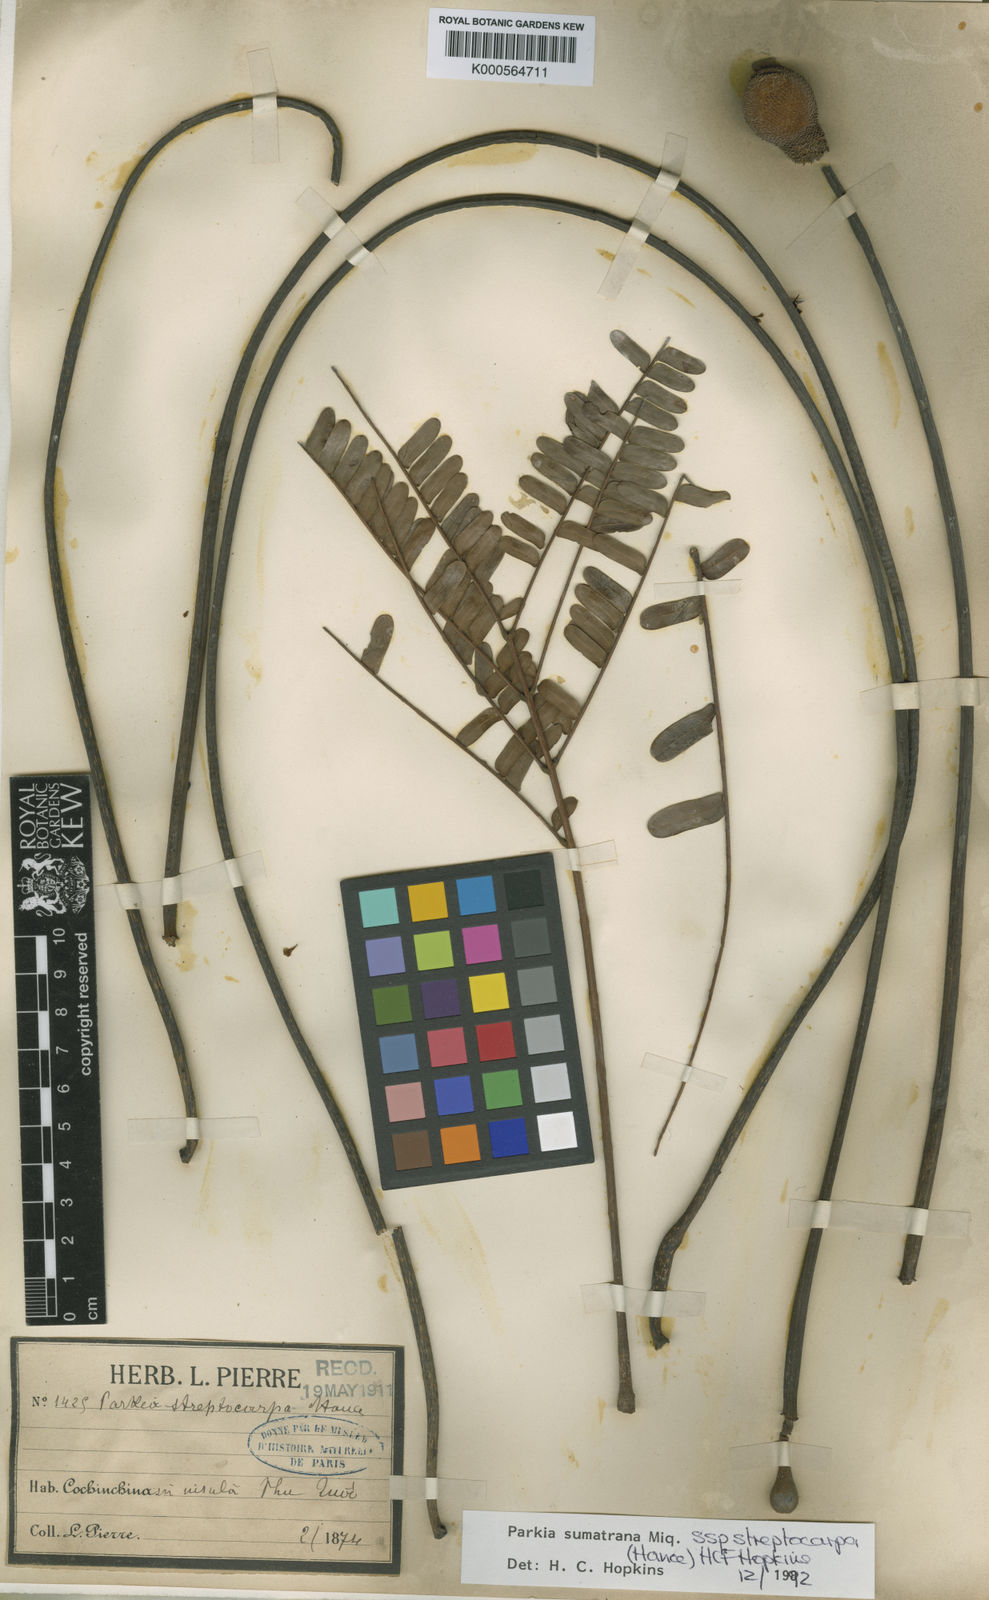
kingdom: Plantae
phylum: Tracheophyta
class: Magnoliopsida
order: Fabales
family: Fabaceae
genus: Parkia
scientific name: Parkia sumatrana
